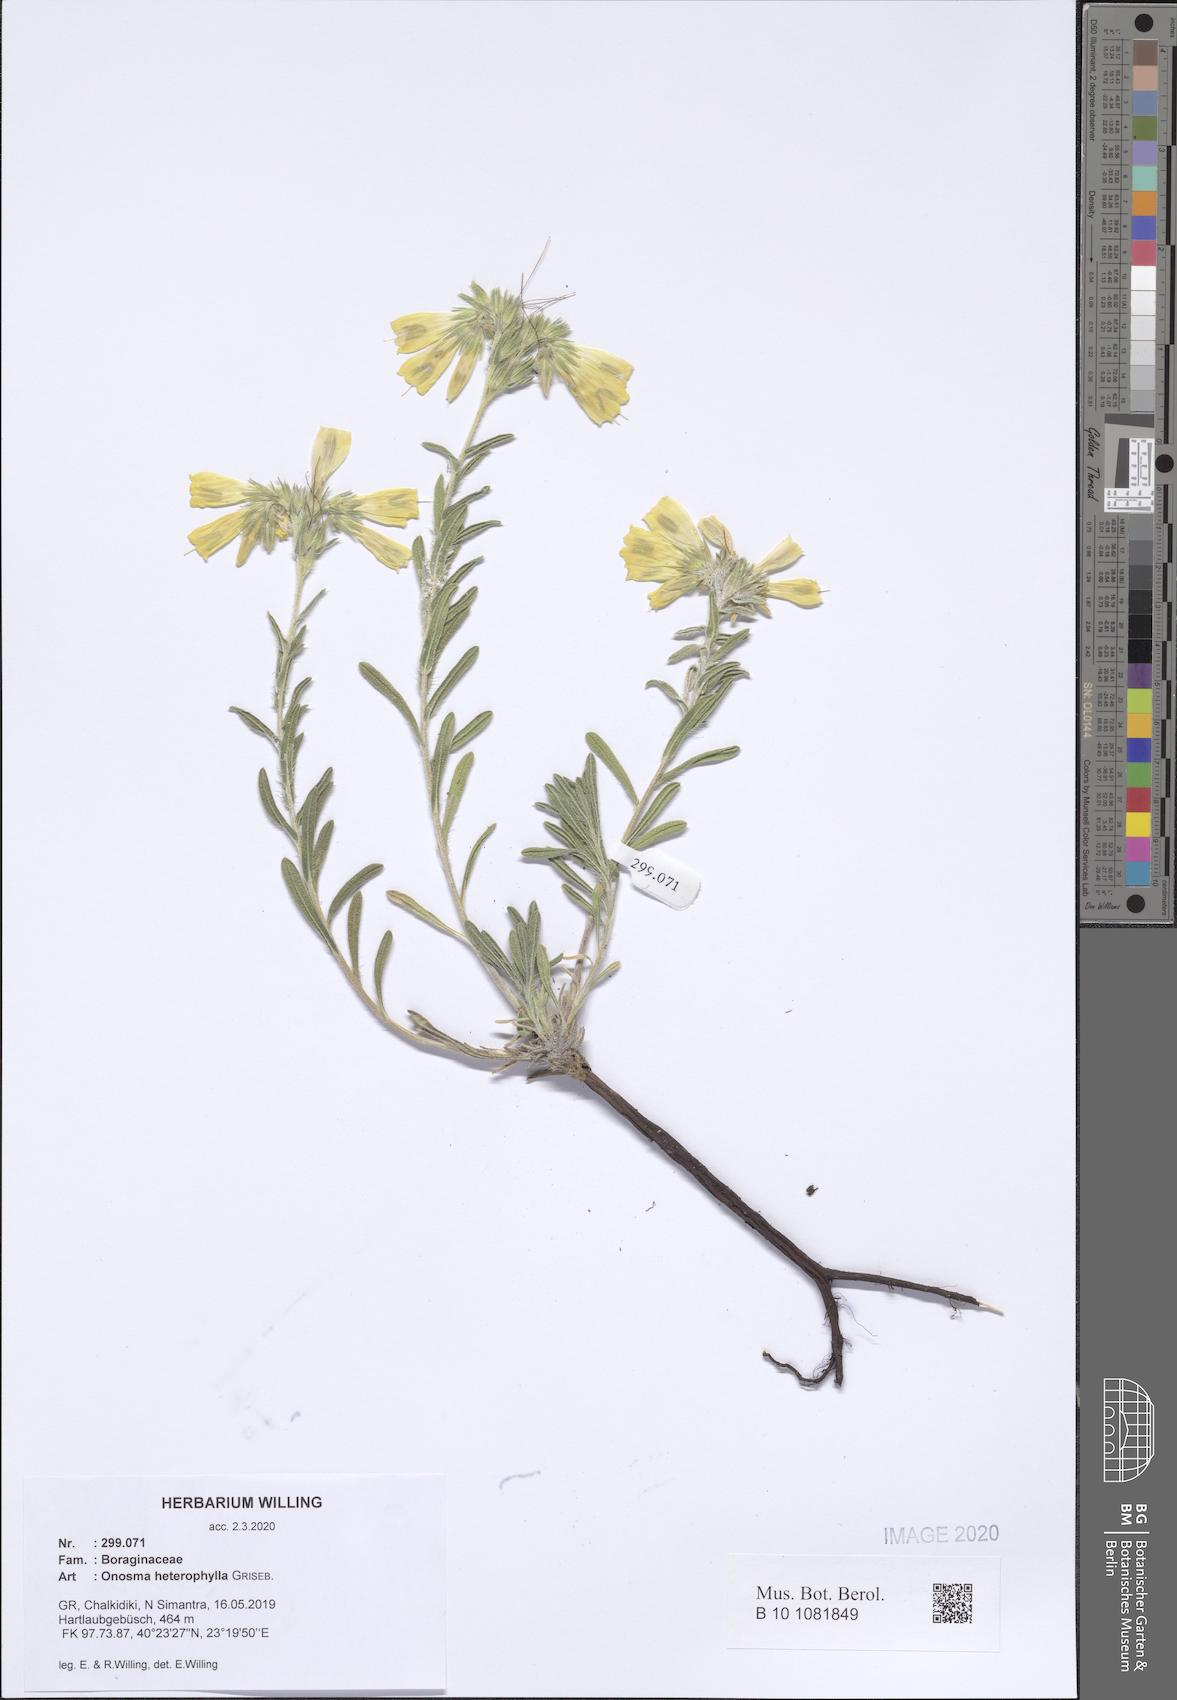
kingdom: Plantae
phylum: Tracheophyta
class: Magnoliopsida
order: Boraginales
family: Boraginaceae
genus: Onosma
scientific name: Onosma heterophylla
